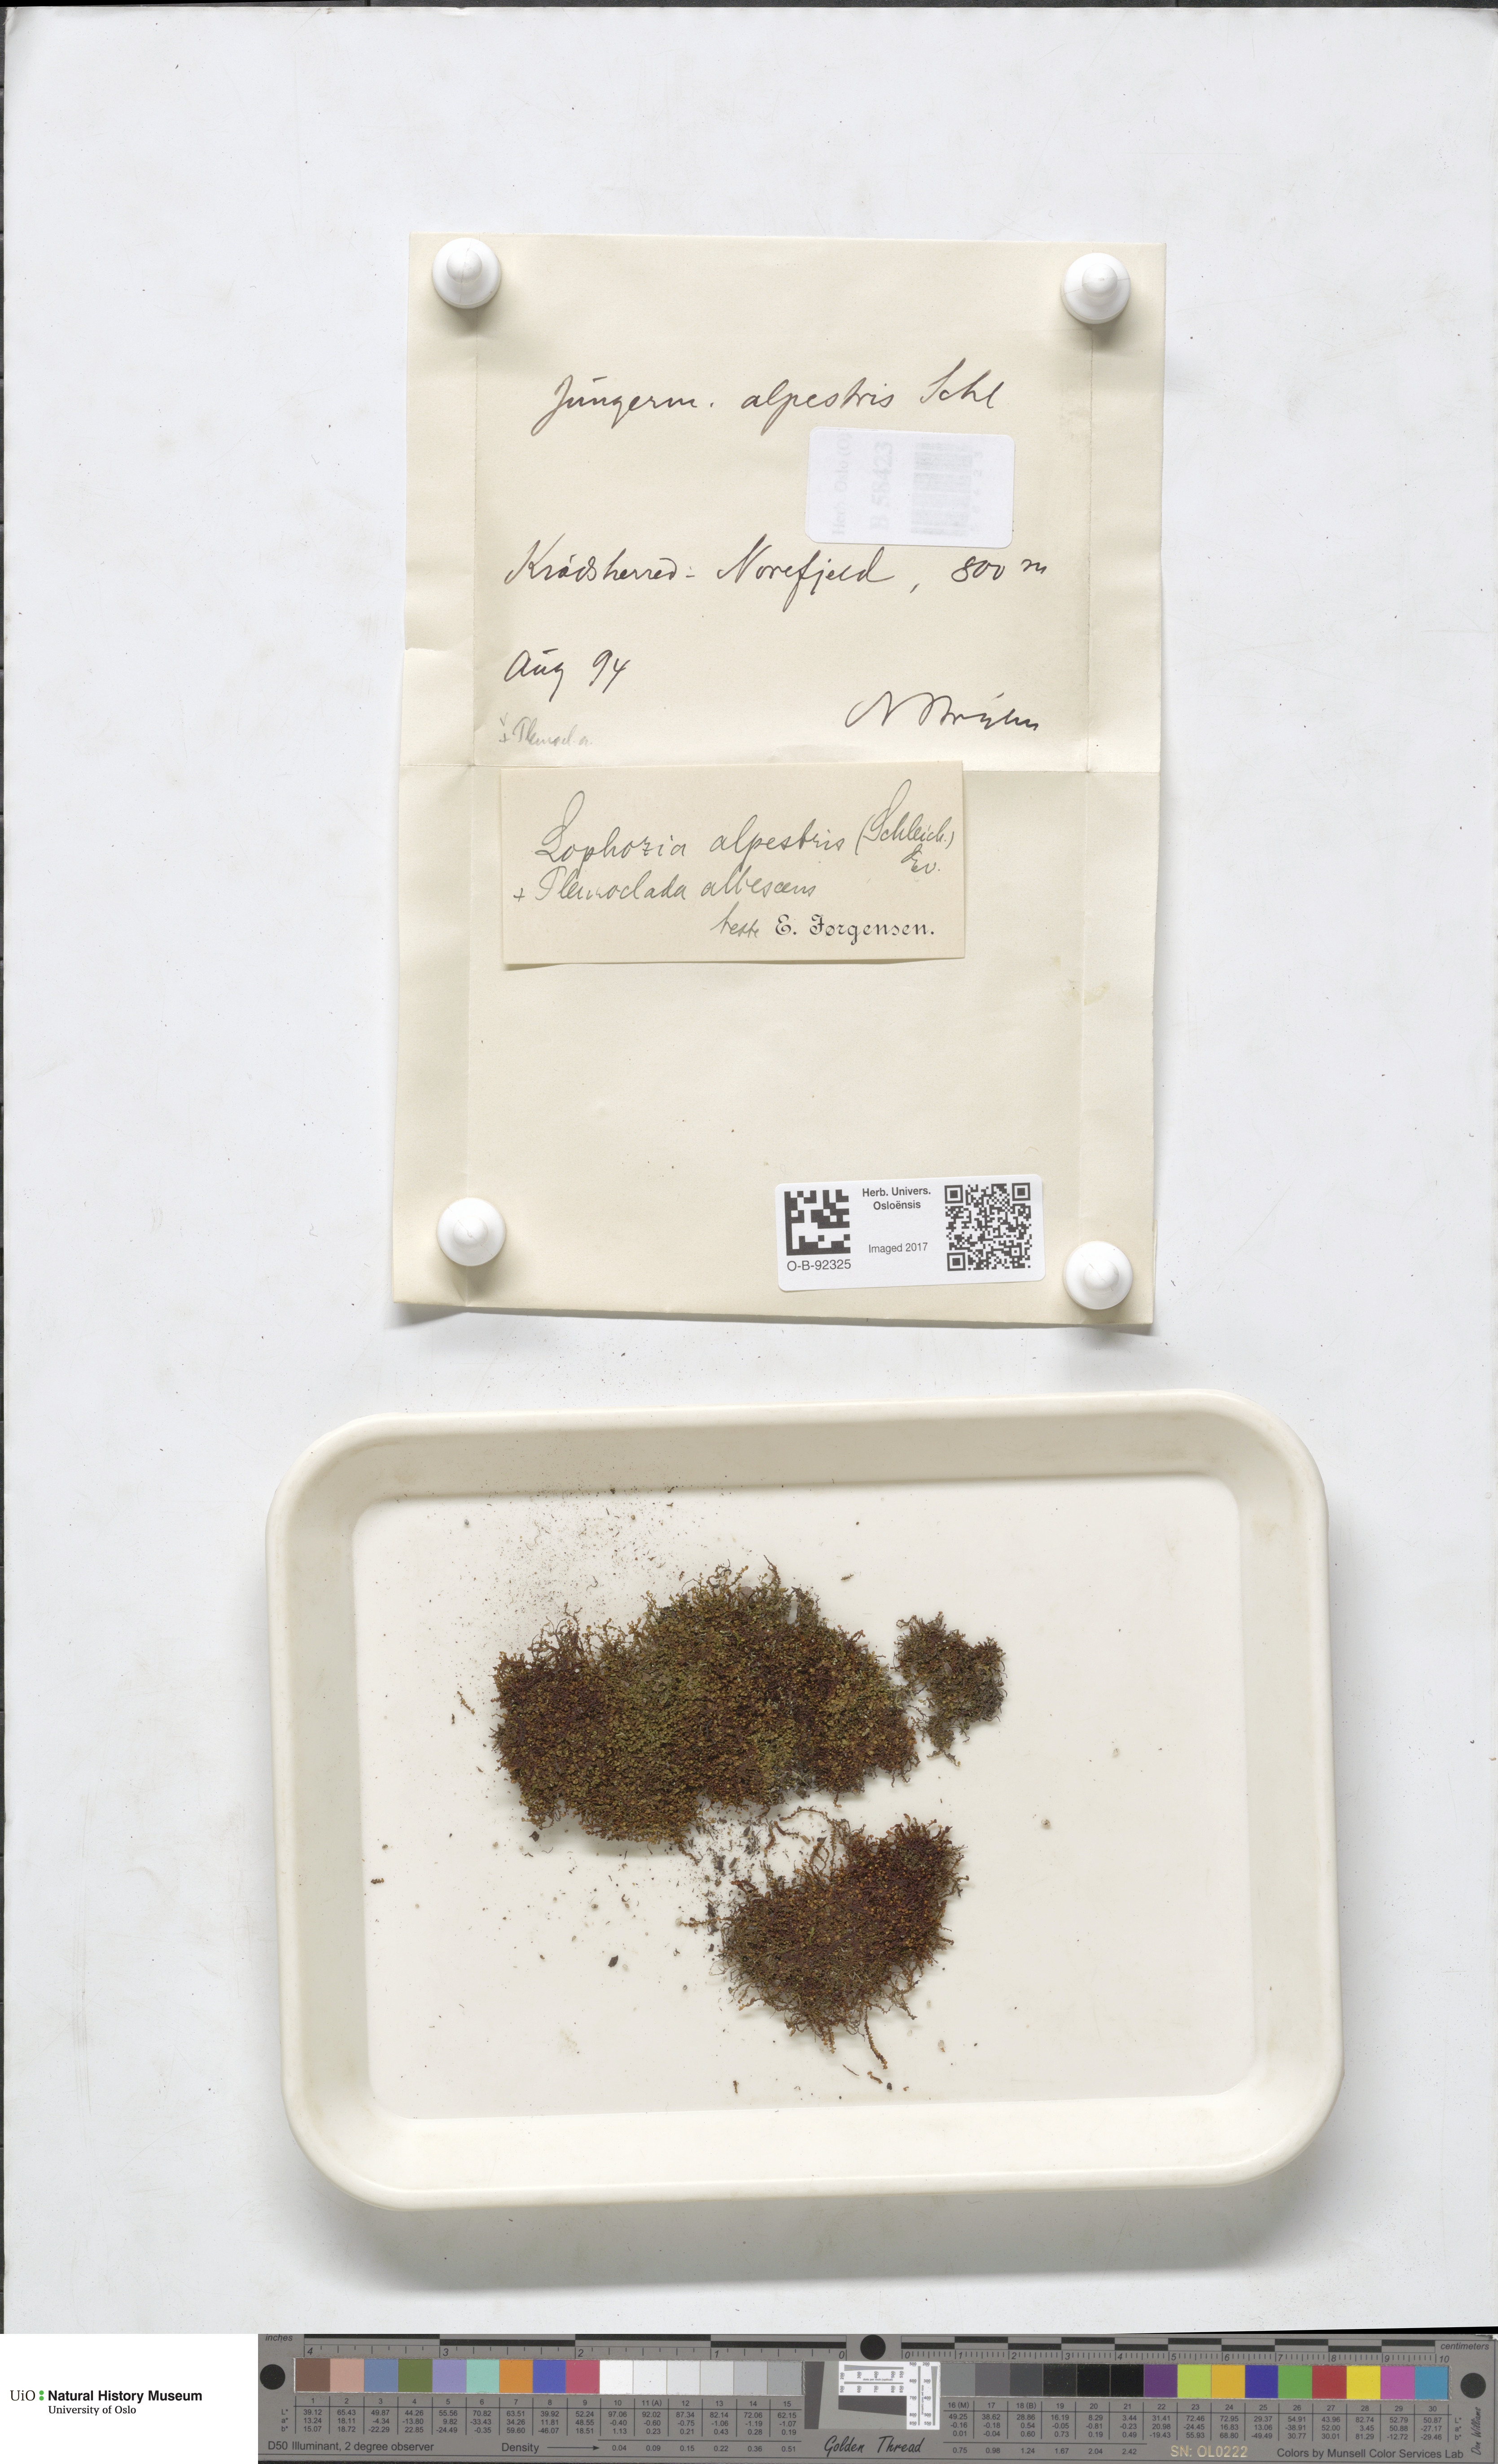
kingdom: Plantae
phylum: Marchantiophyta
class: Jungermanniopsida
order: Jungermanniales
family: Anastrophyllaceae
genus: Barbilophozia
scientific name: Barbilophozia sudetica
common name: Hill notchwort
